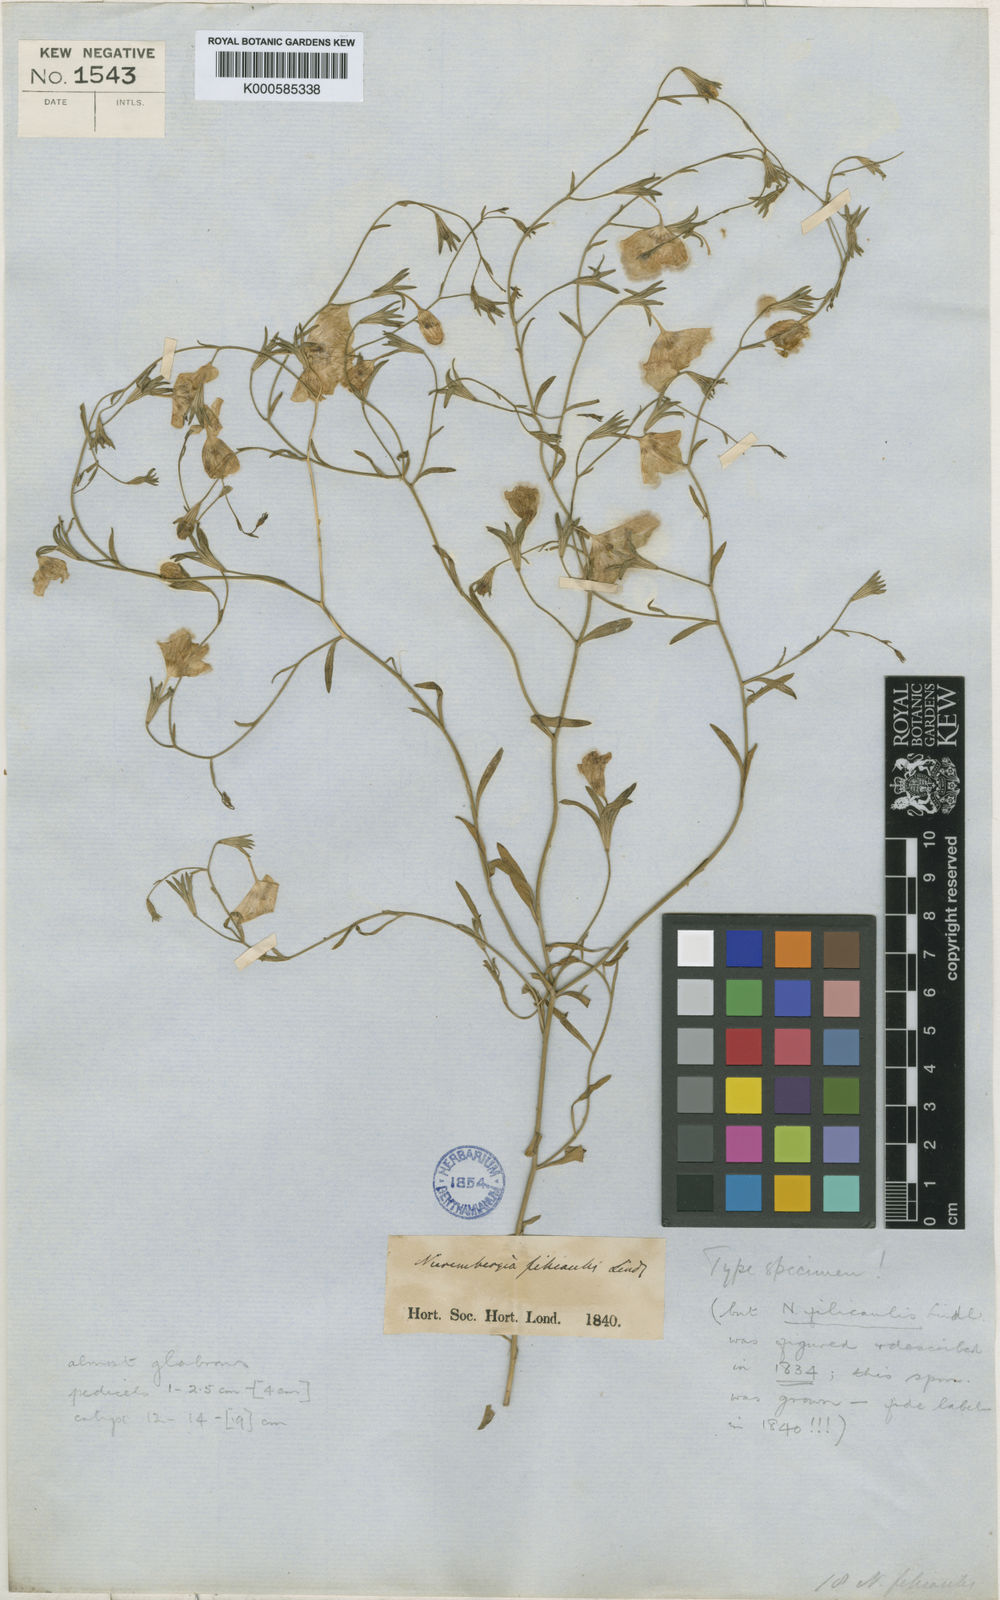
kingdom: Plantae
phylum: Tracheophyta
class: Magnoliopsida
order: Solanales
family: Solanaceae
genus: Nierembergia
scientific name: Nierembergia linariifolia
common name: Dwarf cupflower
